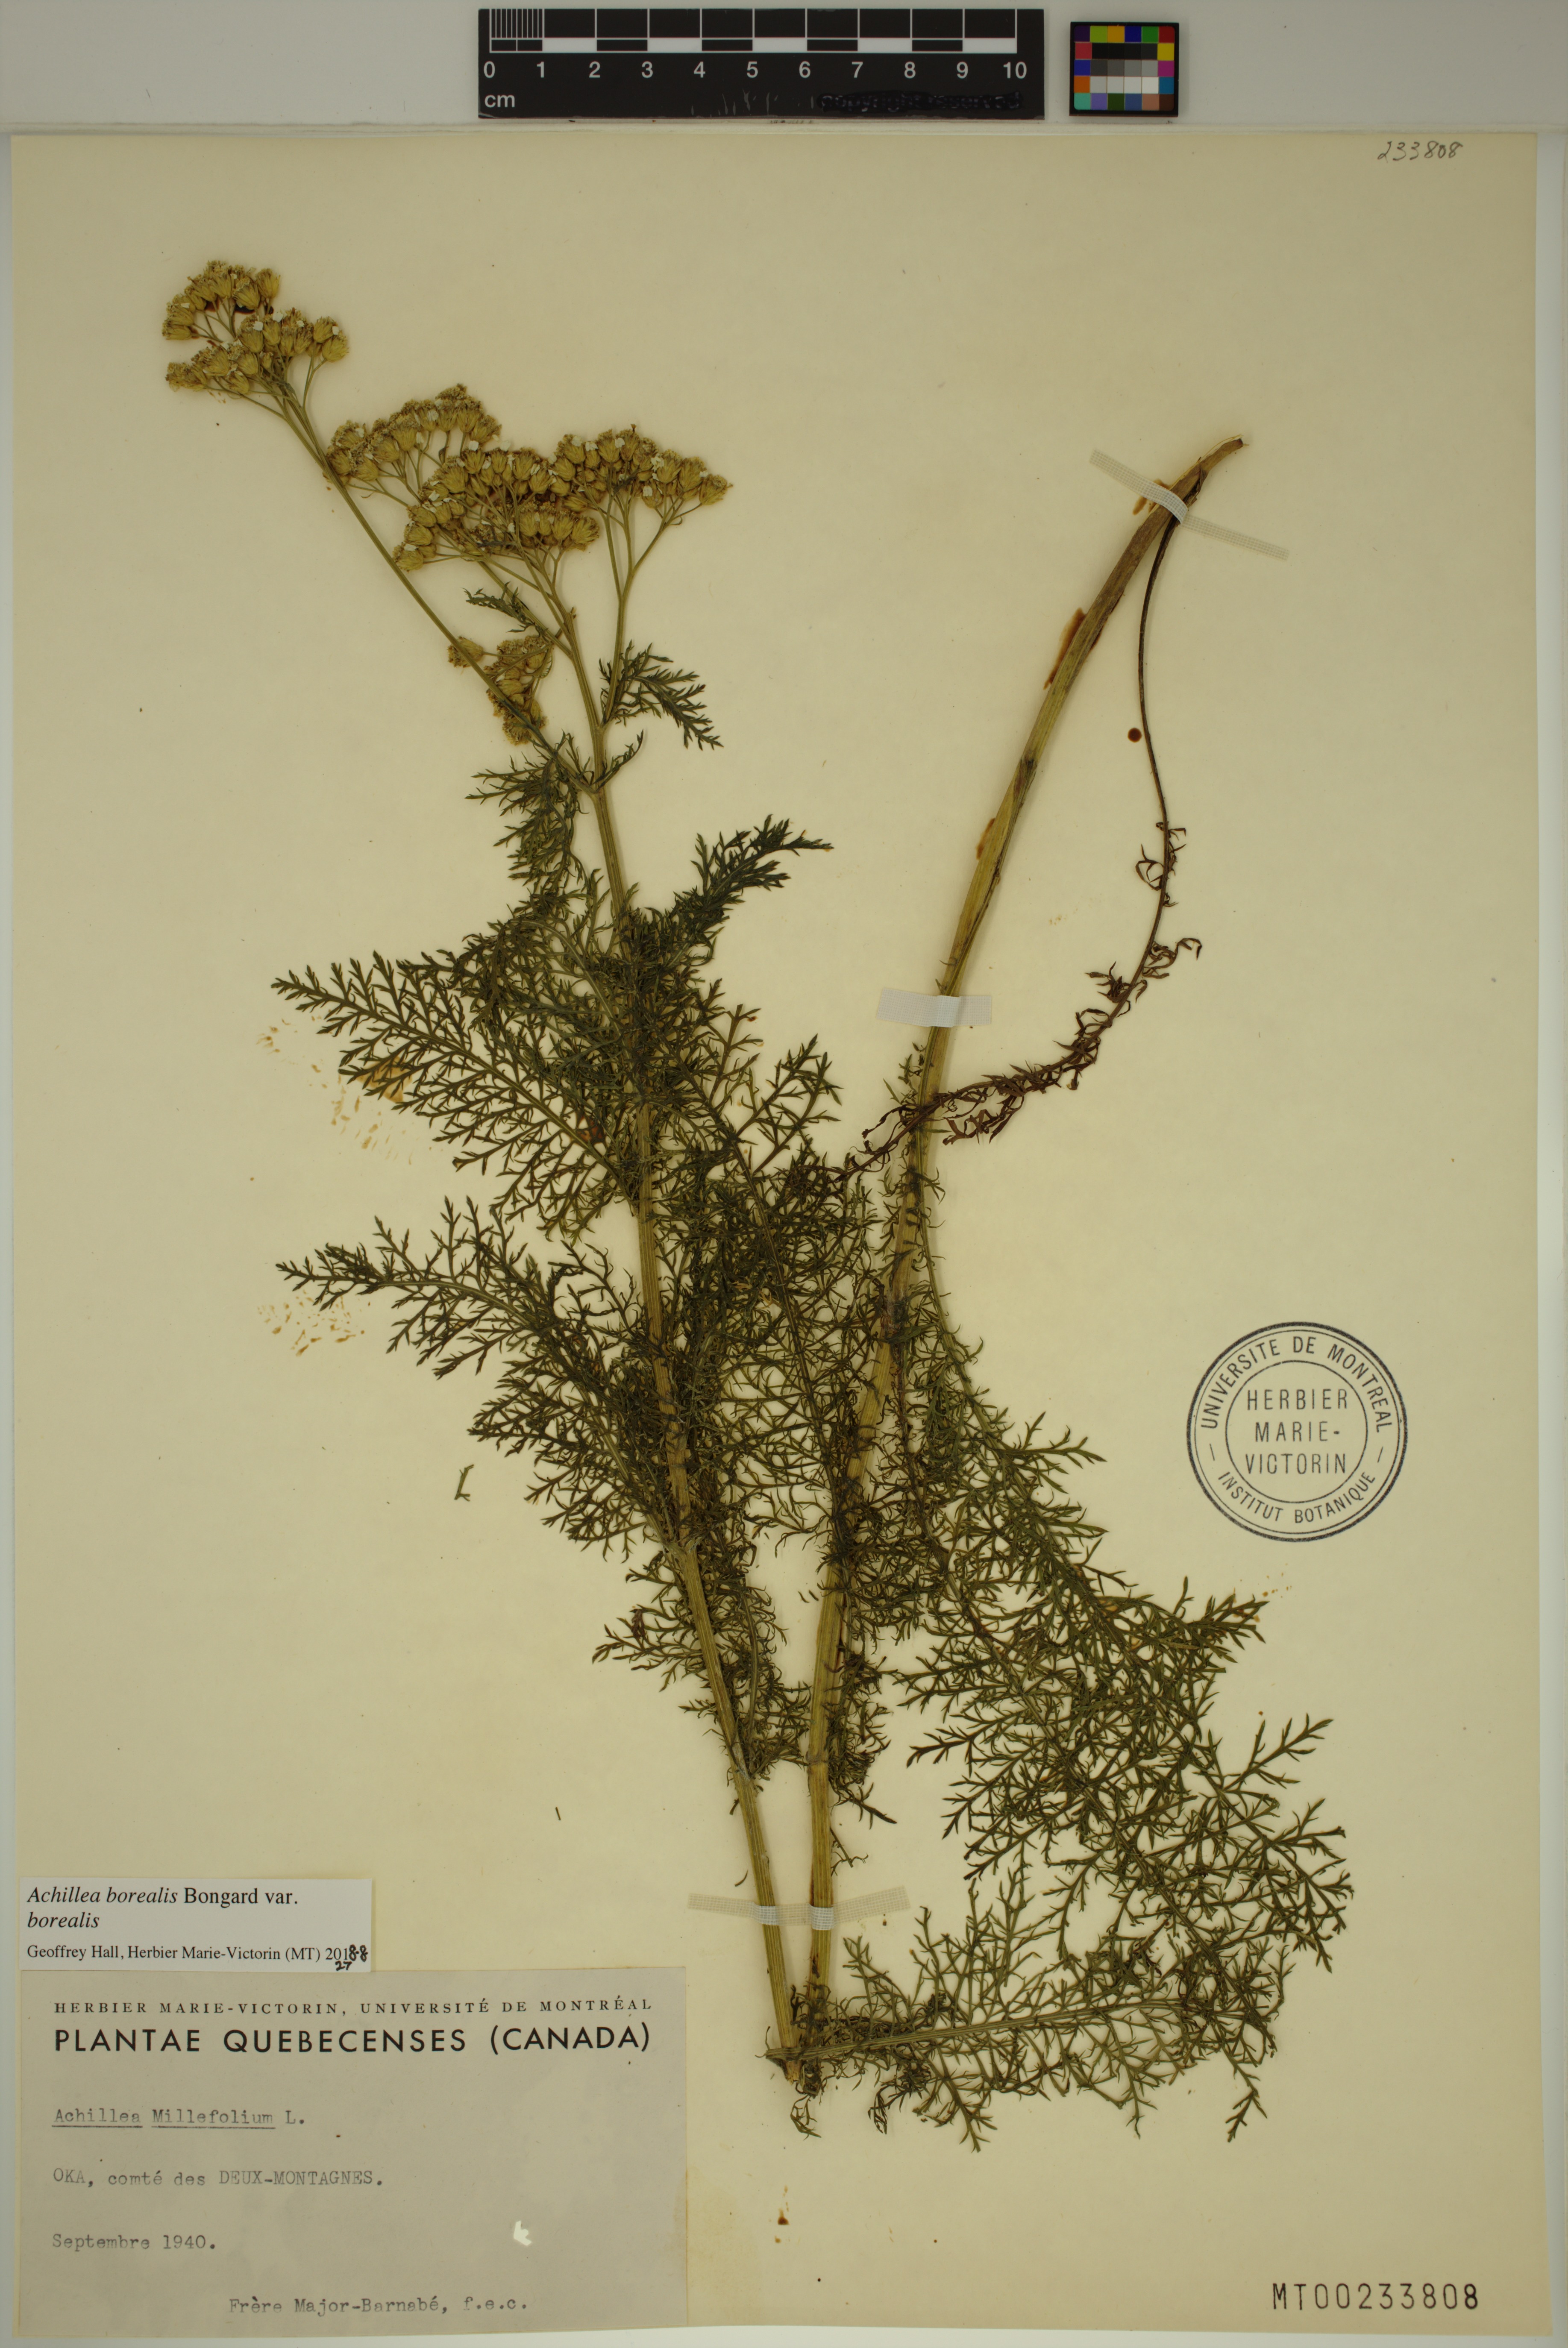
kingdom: Plantae
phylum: Tracheophyta
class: Magnoliopsida
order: Asterales
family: Asteraceae
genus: Achillea
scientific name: Achillea millefolium
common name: Yarrow
